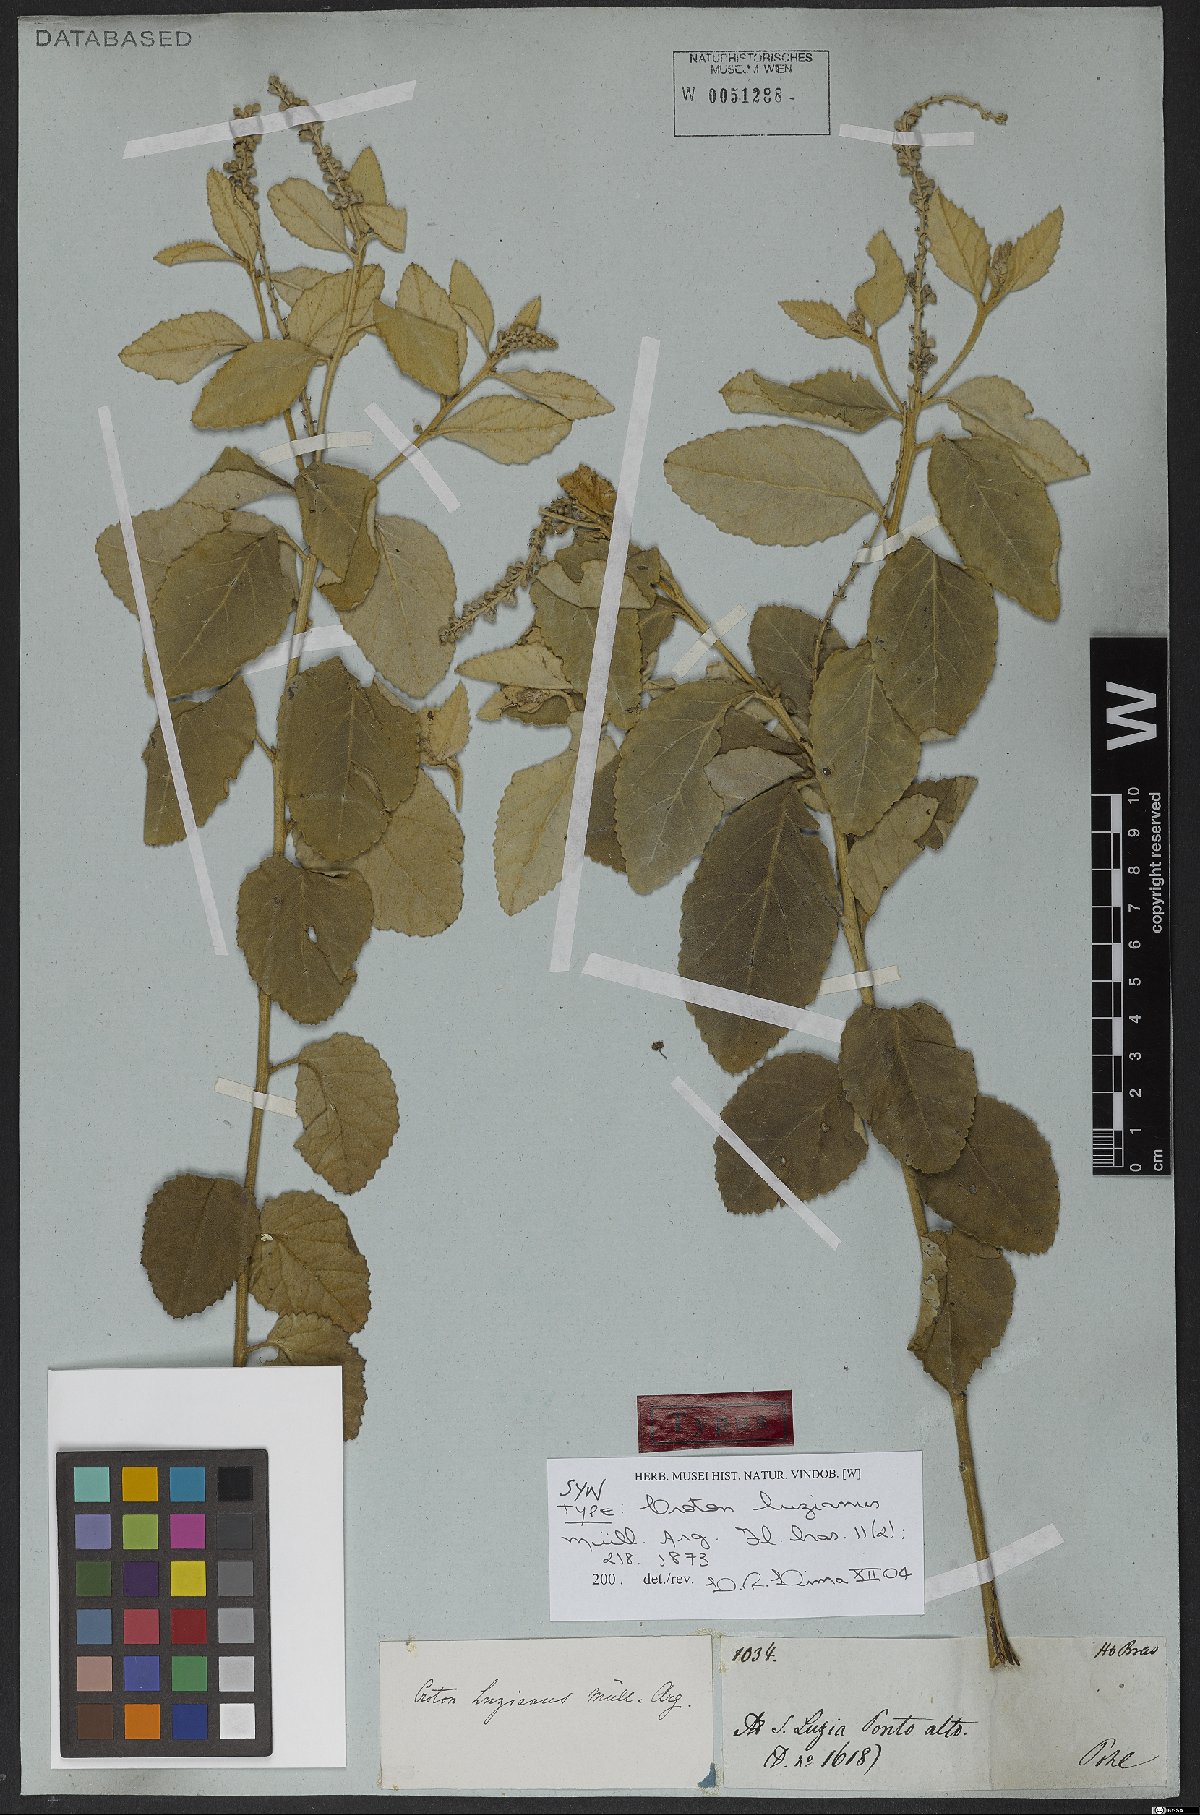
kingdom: Plantae
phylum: Tracheophyta
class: Magnoliopsida
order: Malpighiales
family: Euphorbiaceae
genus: Croton
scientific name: Croton goyazensis
